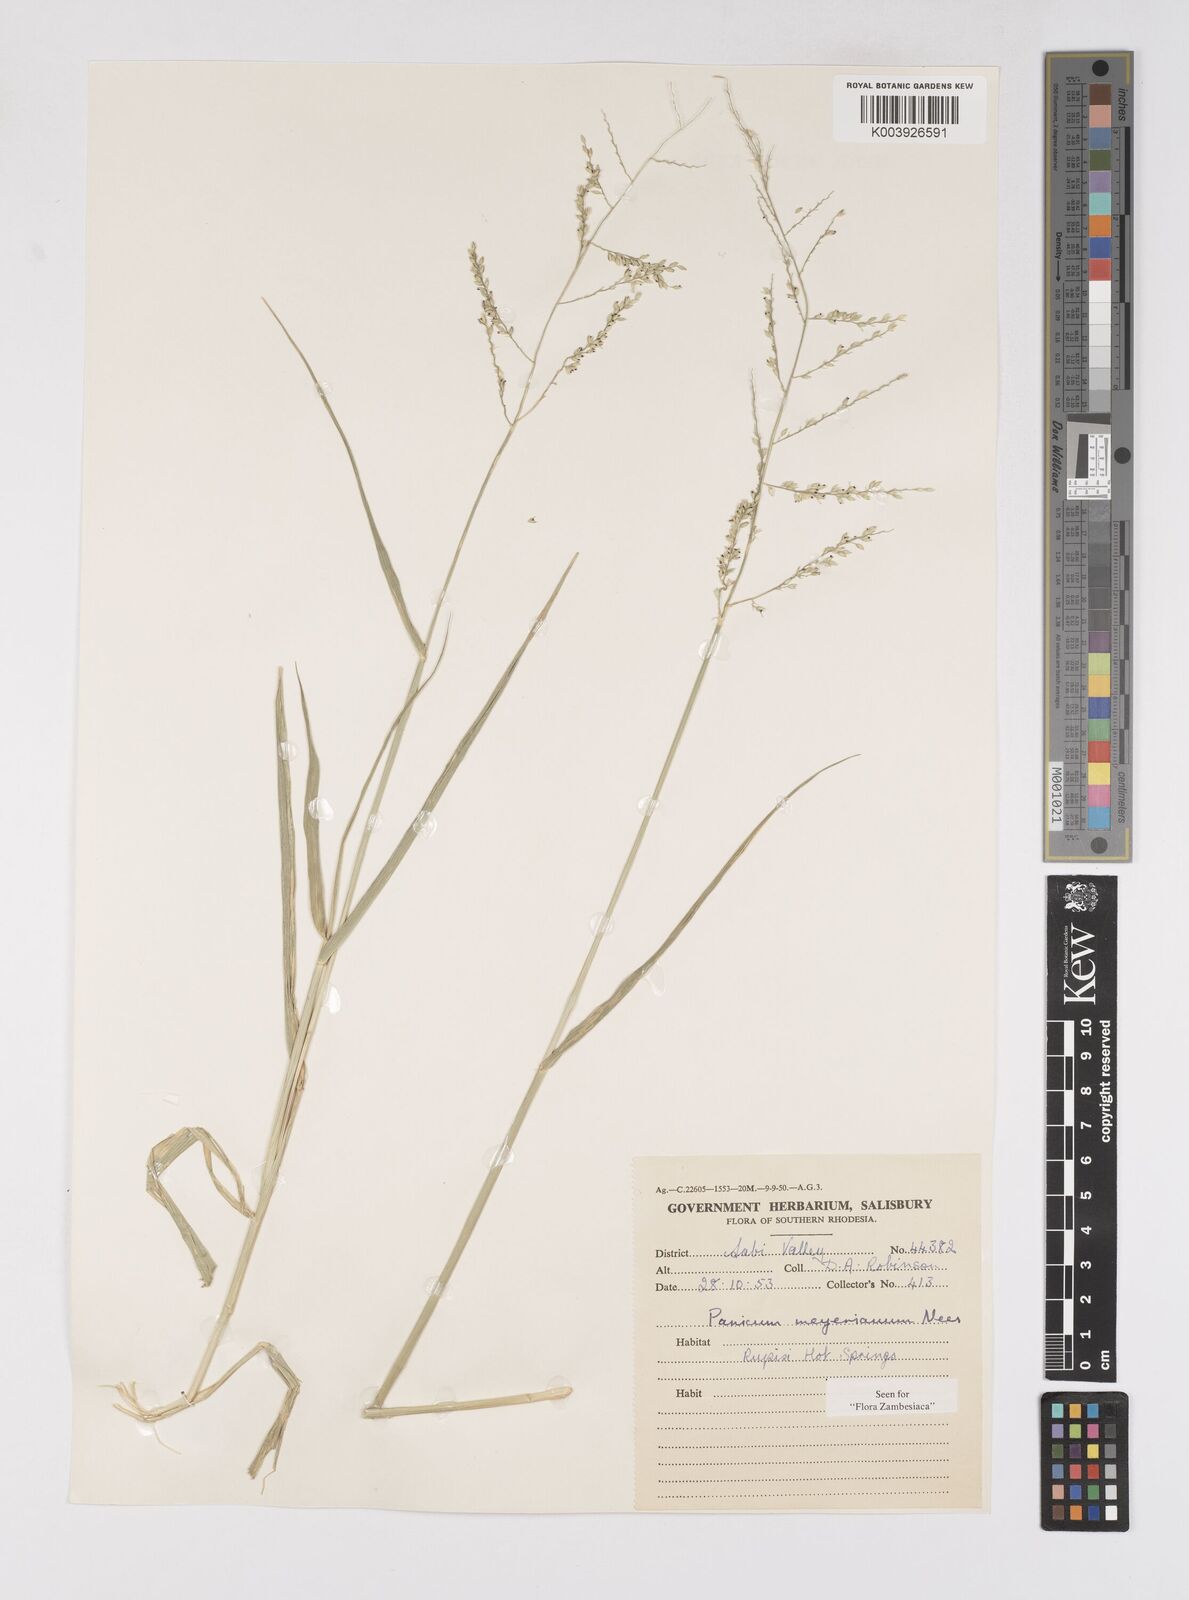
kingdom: Plantae
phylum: Tracheophyta
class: Liliopsida
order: Poales
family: Poaceae
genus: Eriochloa
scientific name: Eriochloa meyeriana
